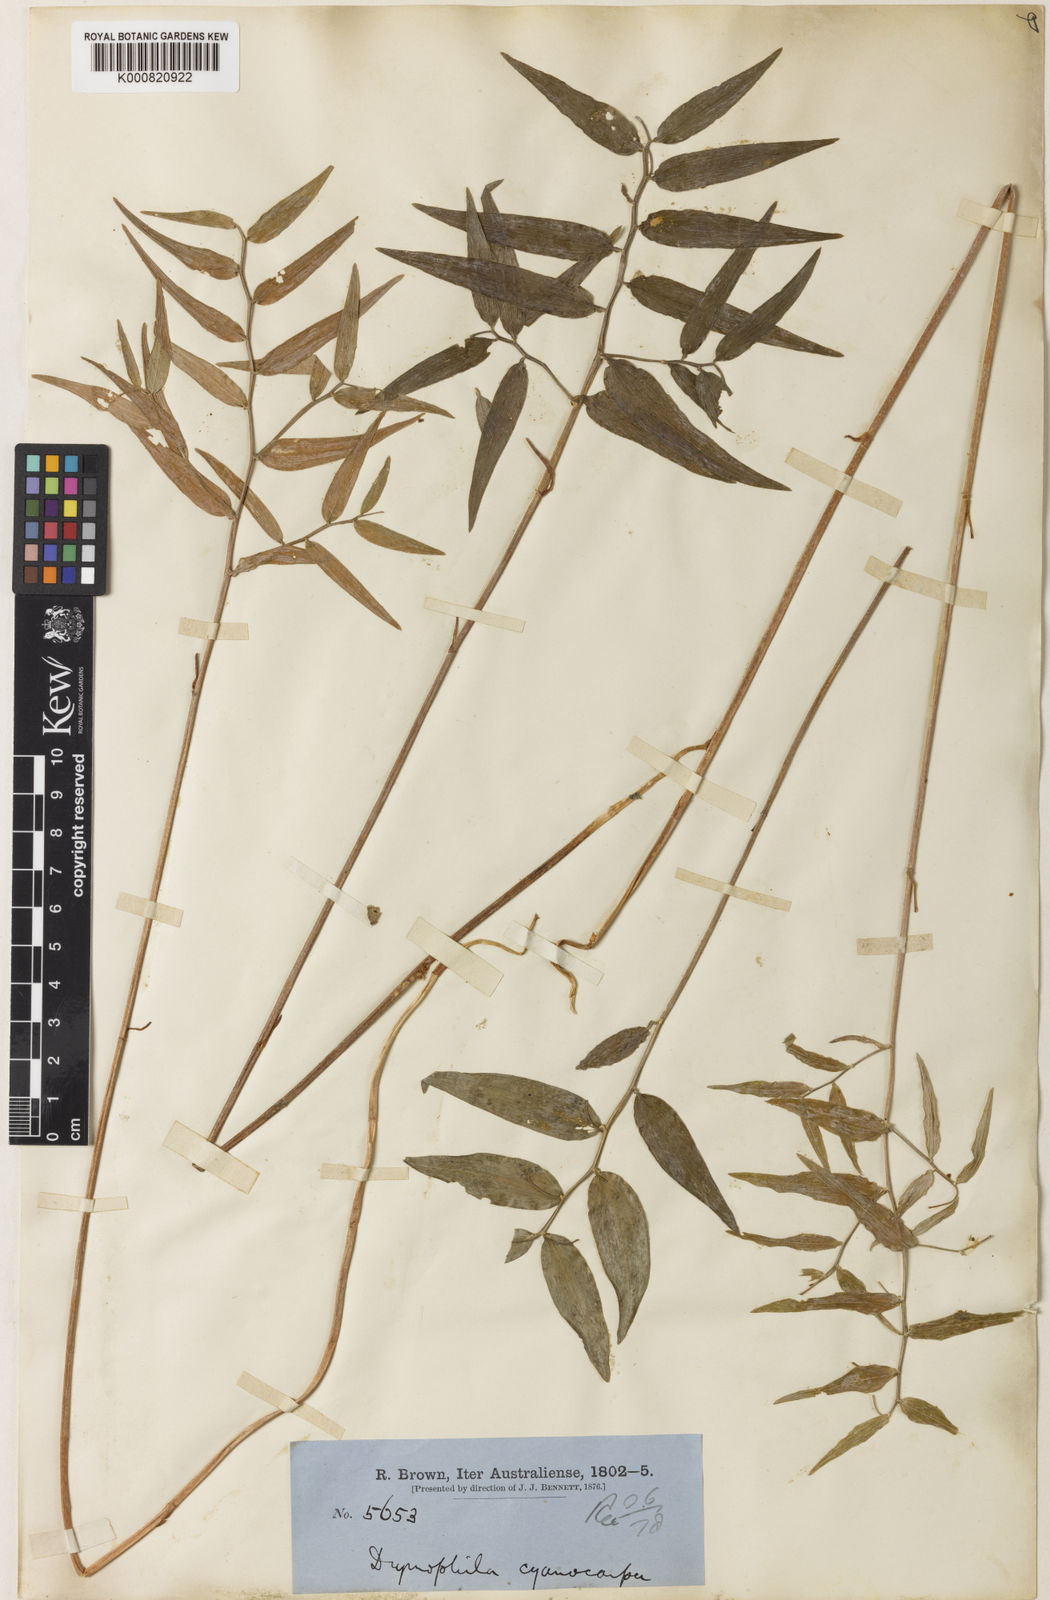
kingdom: Plantae
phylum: Tracheophyta
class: Liliopsida
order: Liliales
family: Alstroemeriaceae
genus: Drymophila
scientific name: Drymophila cyanocarpa
